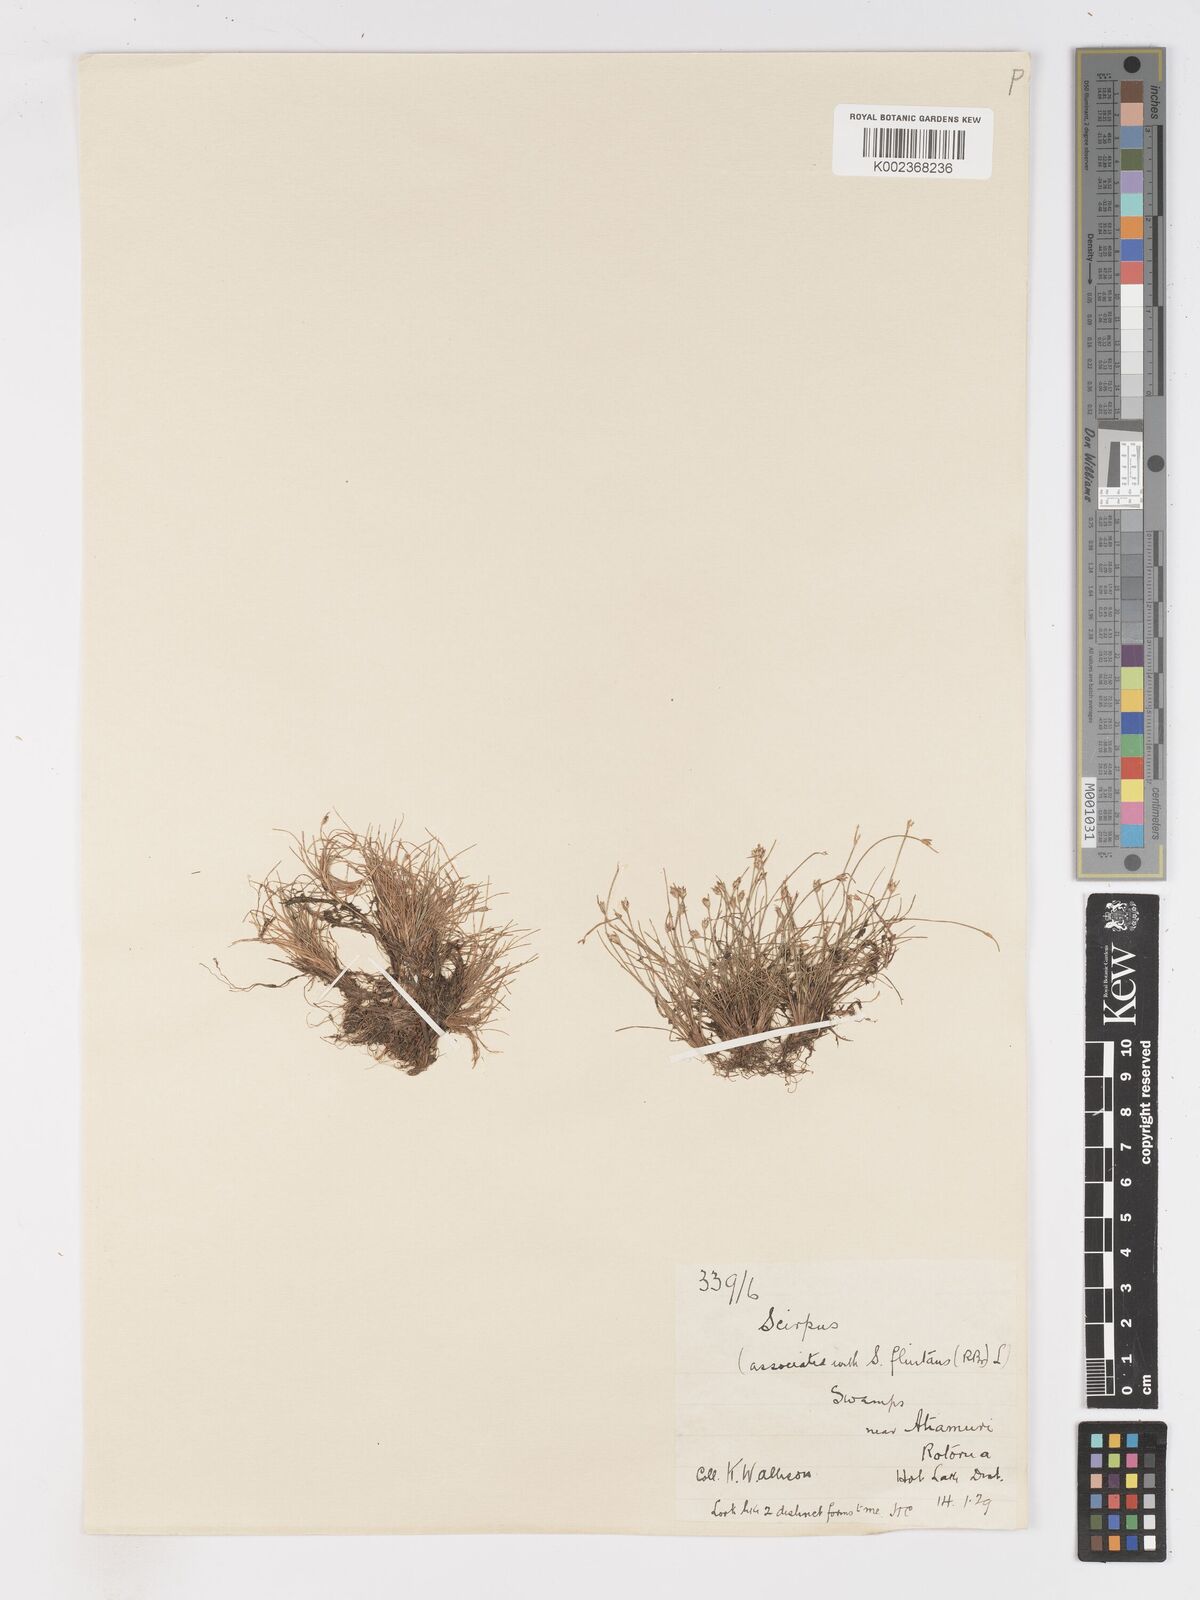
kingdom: Plantae
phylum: Tracheophyta
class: Liliopsida
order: Poales
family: Cyperaceae
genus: Isolepis
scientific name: Isolepis fluitans
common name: Floating club-rush
